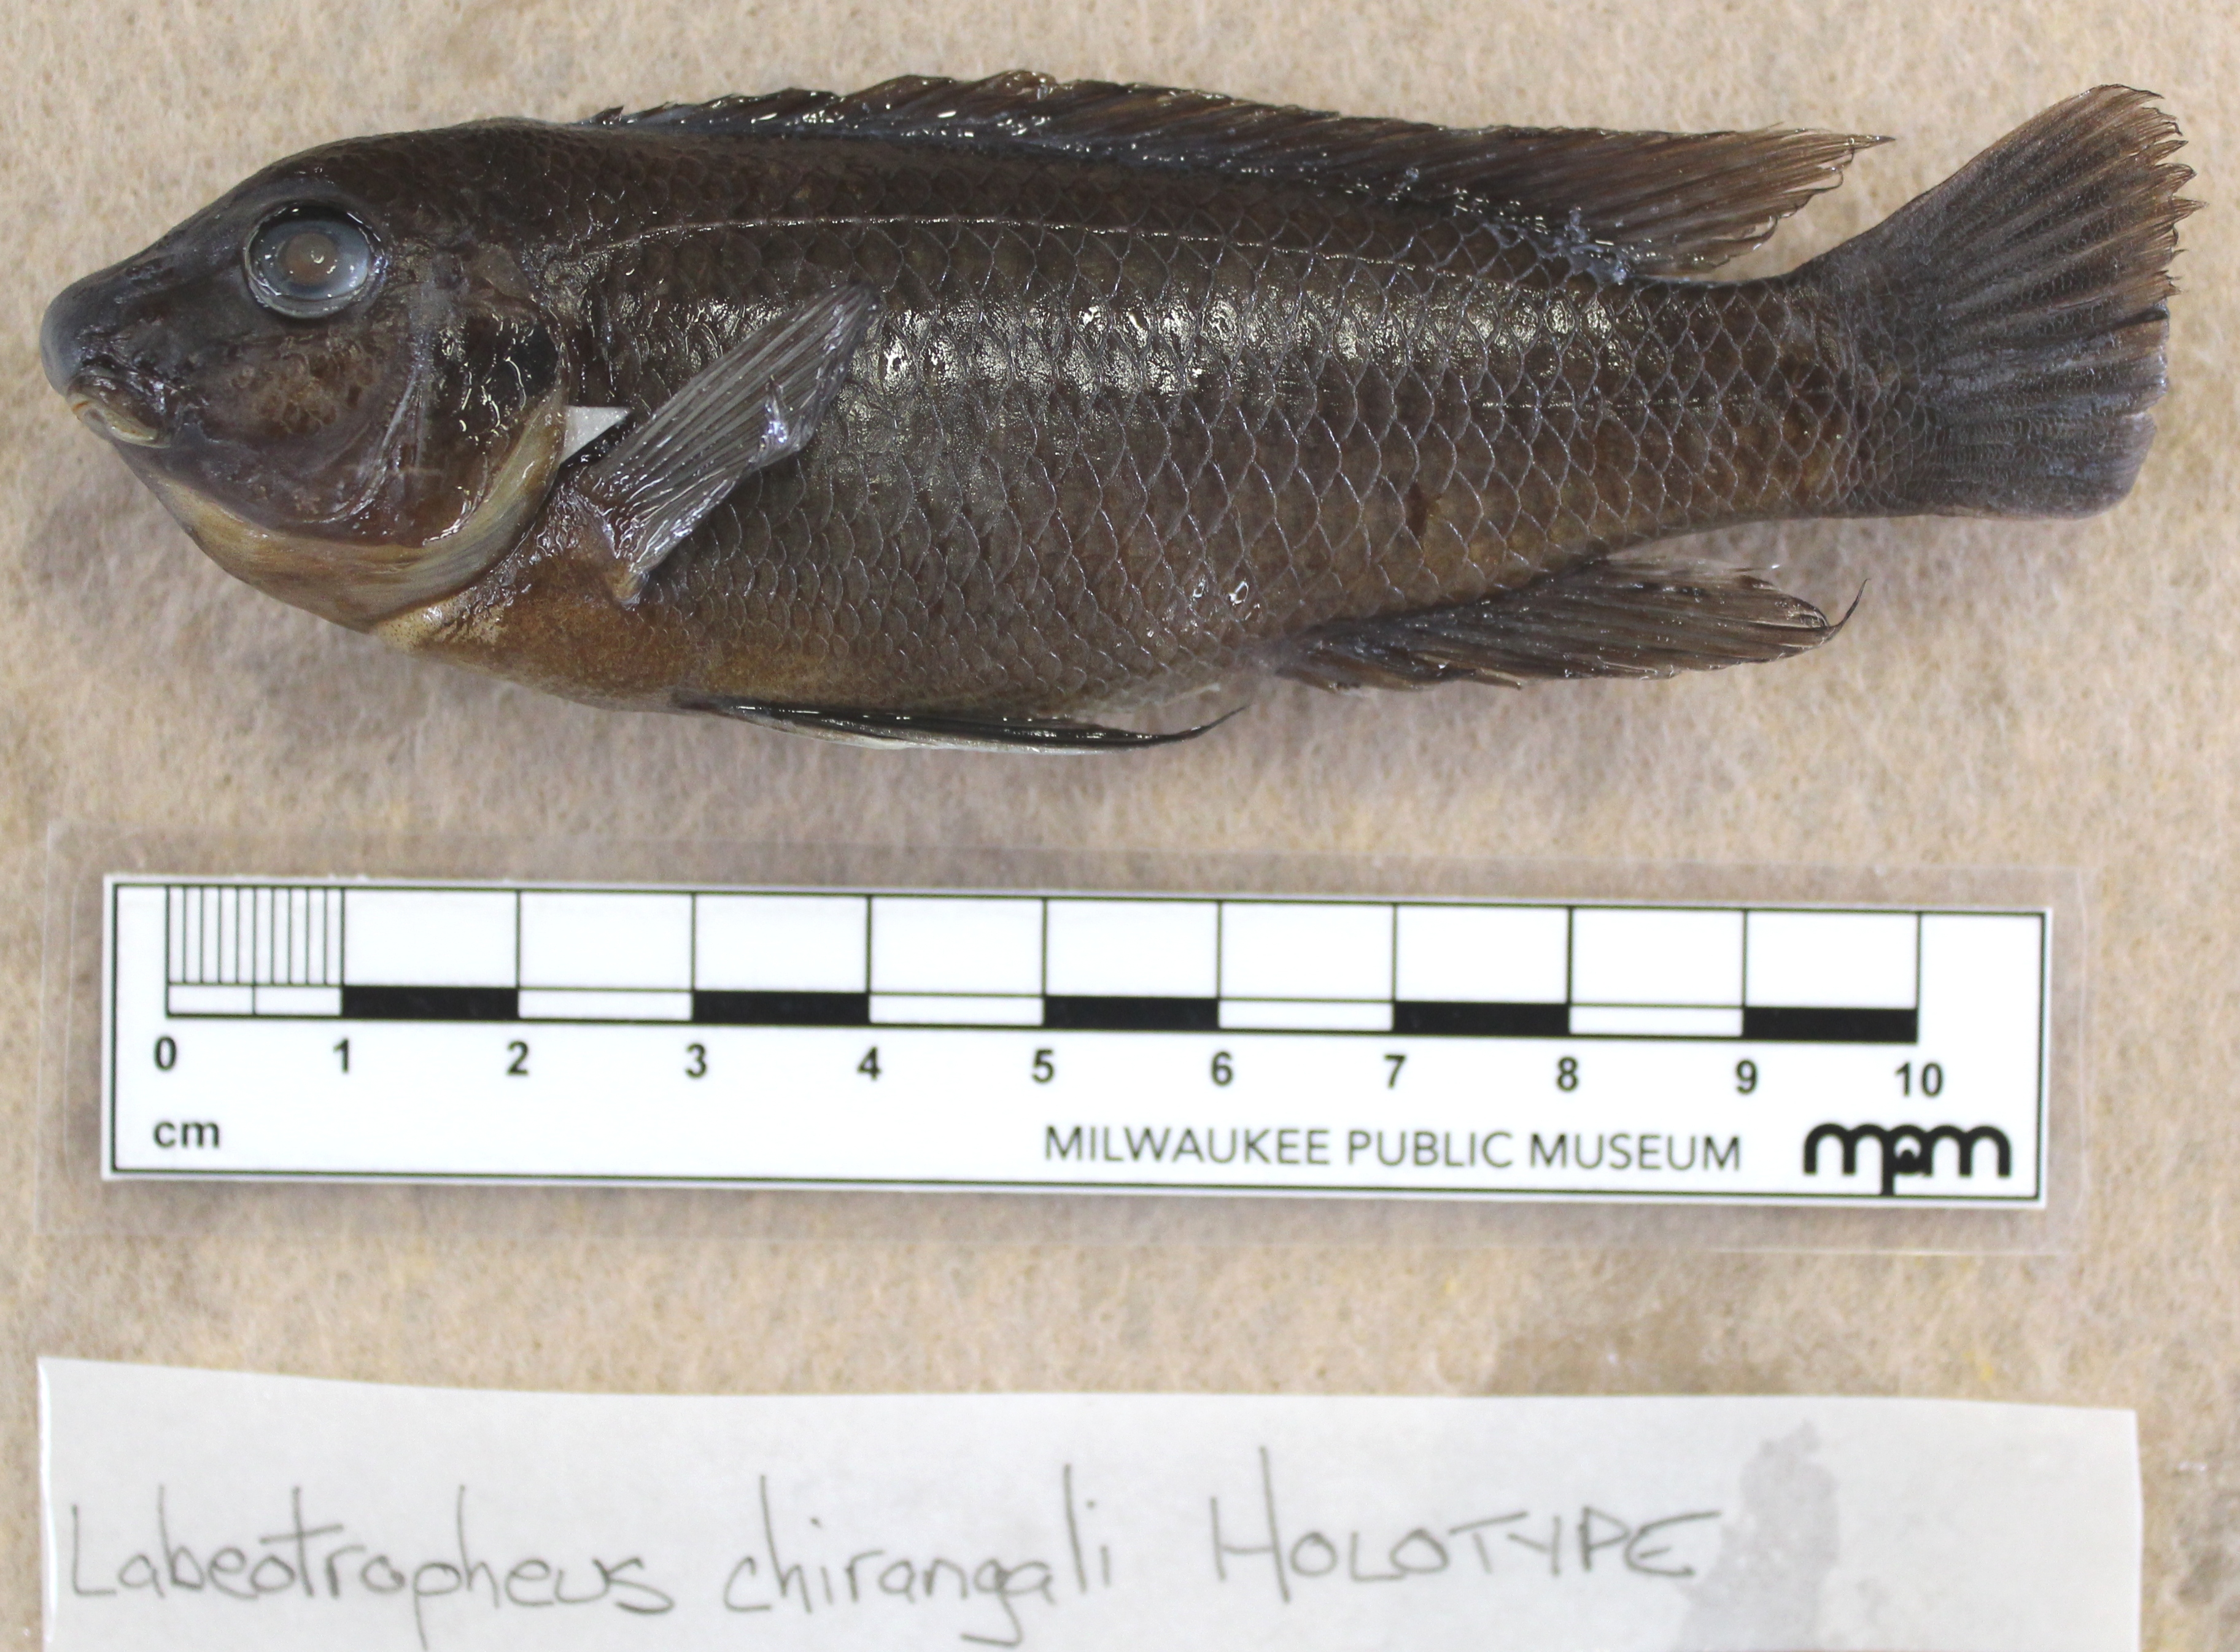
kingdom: Animalia
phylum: Chordata
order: Perciformes
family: Cichlidae
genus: Labeotropheus
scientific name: Labeotropheus
